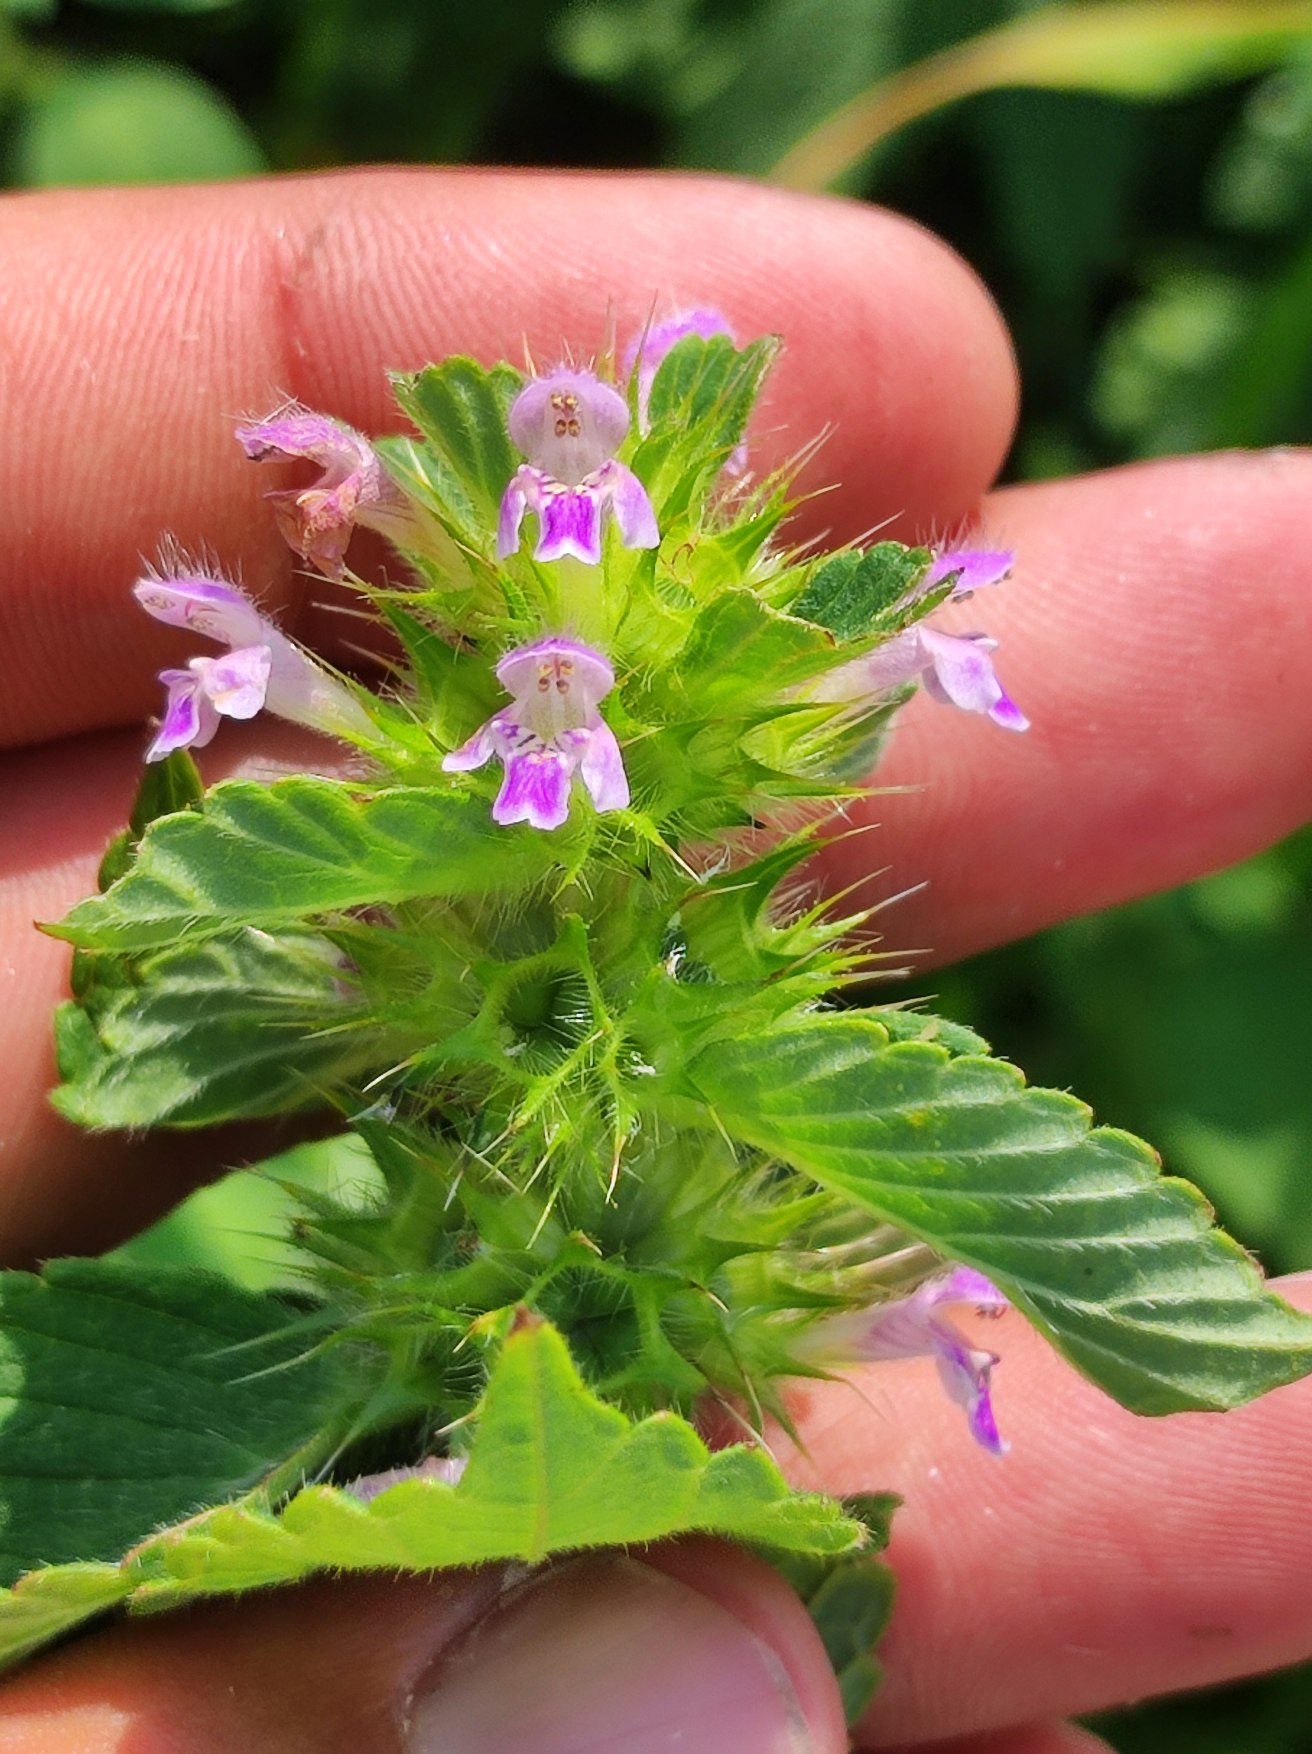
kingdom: Plantae
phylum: Tracheophyta
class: Magnoliopsida
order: Lamiales
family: Lamiaceae
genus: Galeopsis
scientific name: Galeopsis bifida
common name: Skov-hanekro
